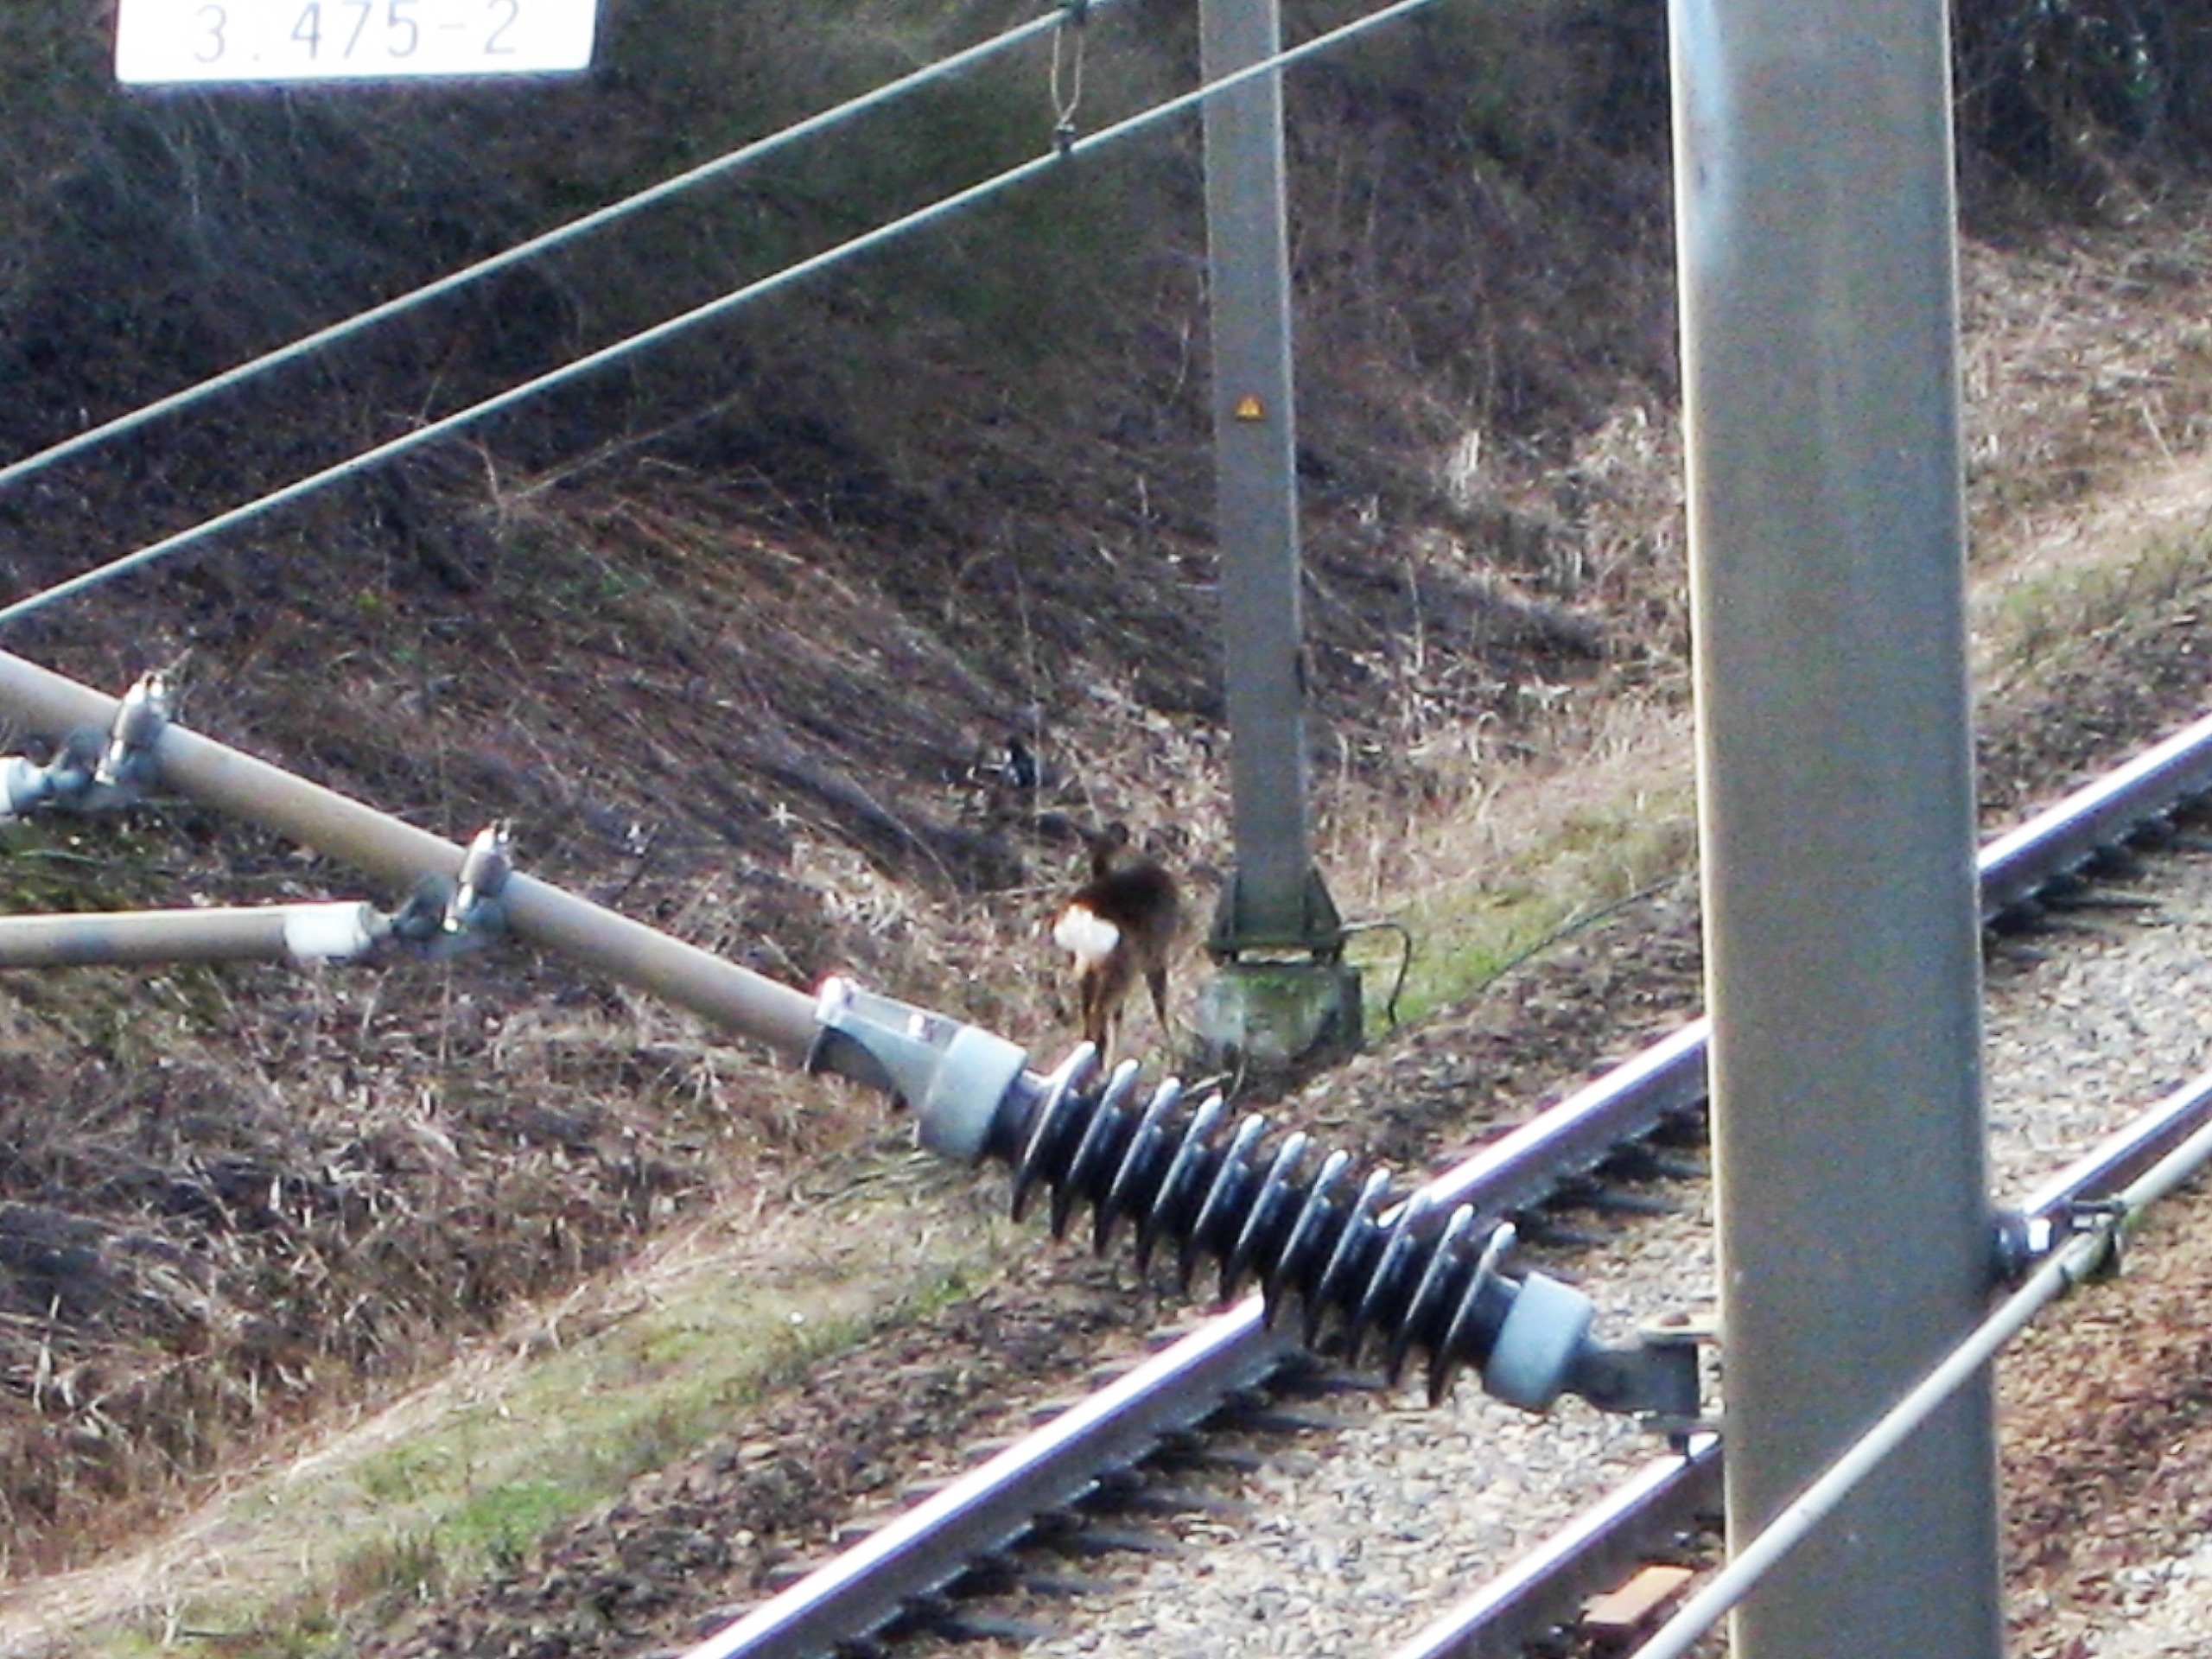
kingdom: Animalia
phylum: Chordata
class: Mammalia
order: Artiodactyla
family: Cervidae
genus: Capreolus
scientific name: Capreolus capreolus
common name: Rådyr
